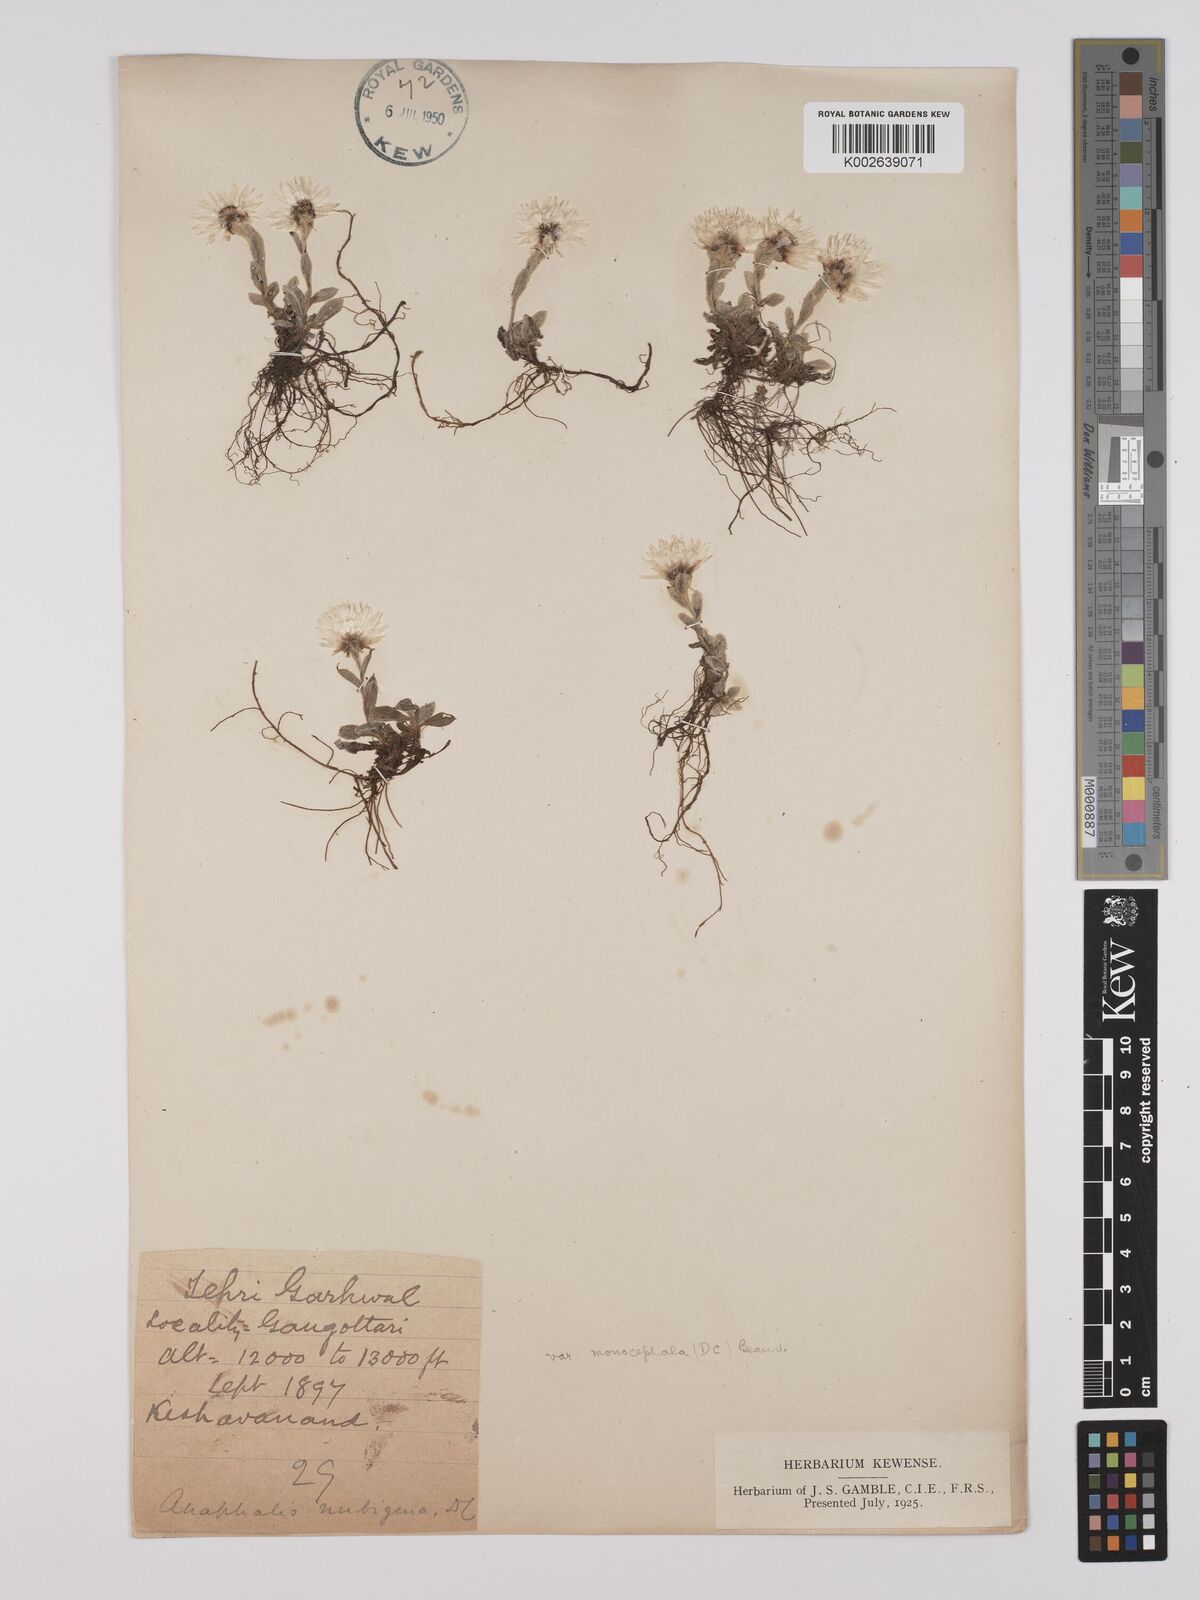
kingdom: Plantae
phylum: Tracheophyta
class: Magnoliopsida
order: Asterales
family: Asteraceae
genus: Anaphalis
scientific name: Anaphalis nepalensis
